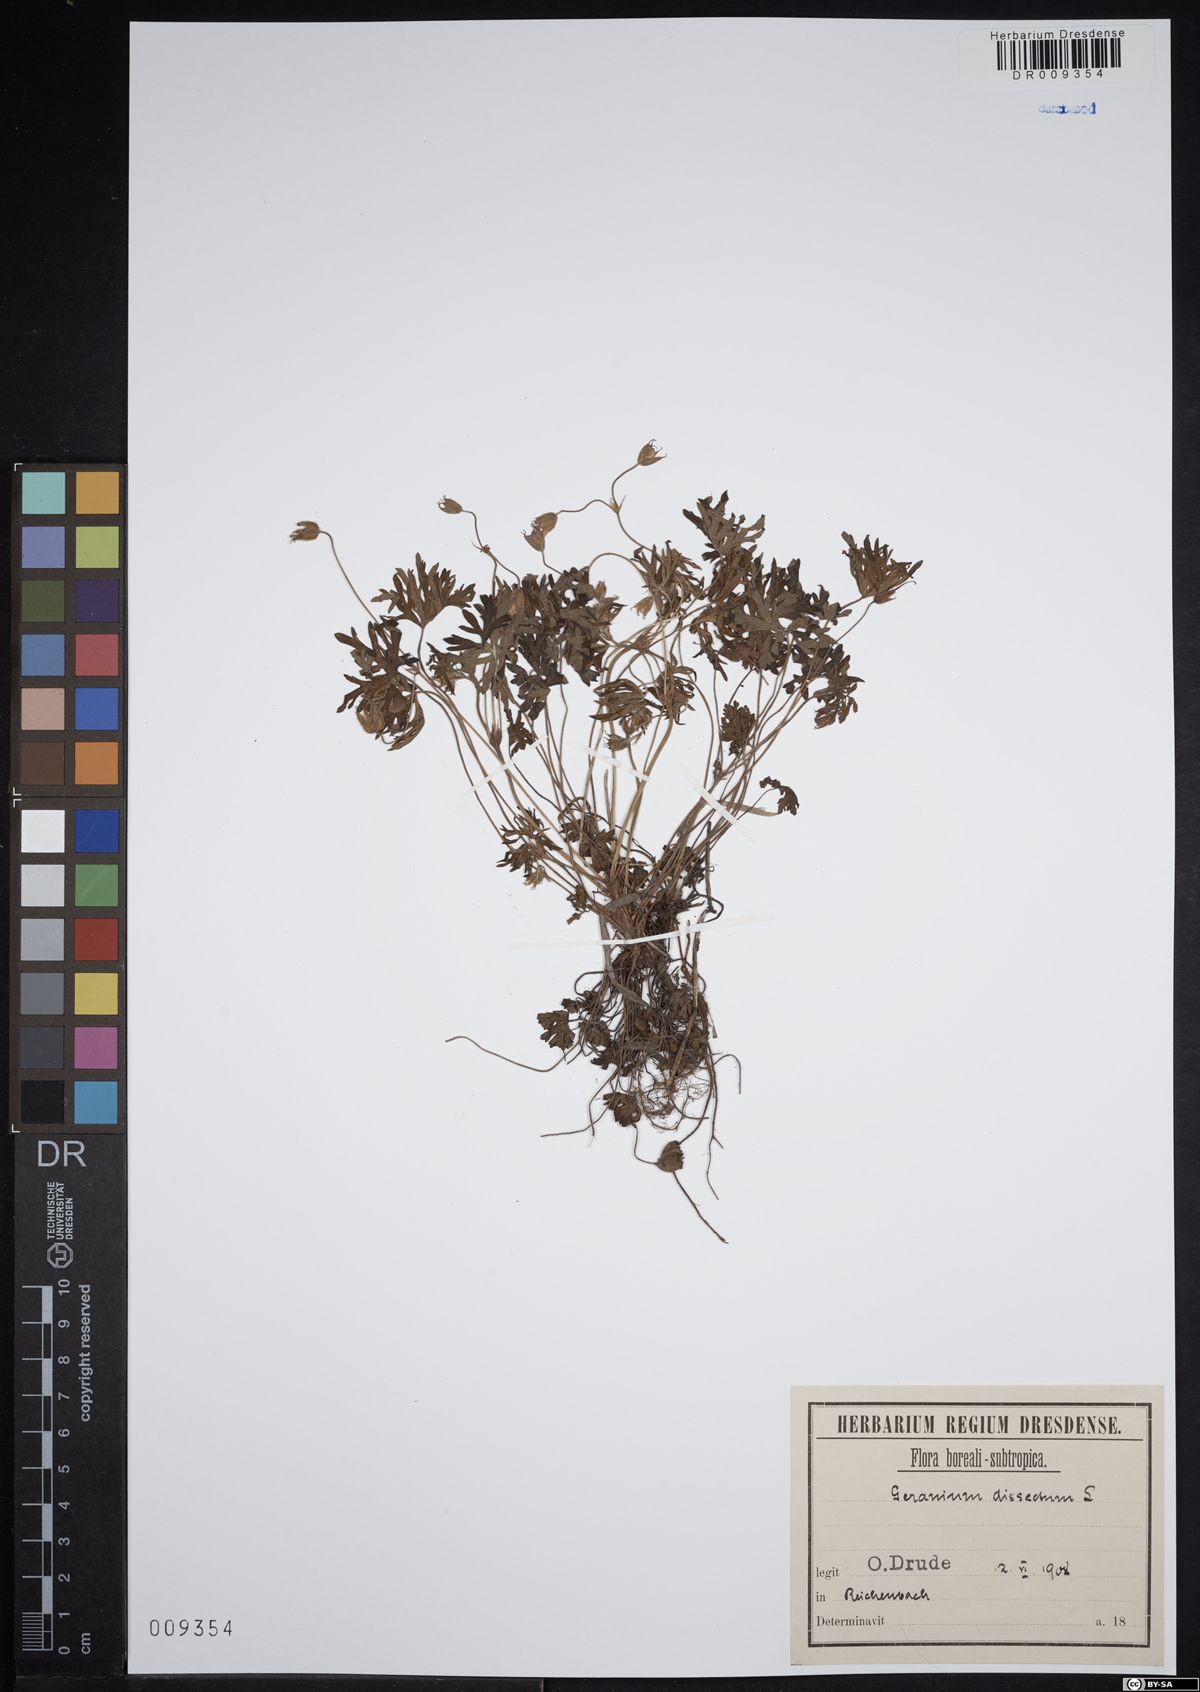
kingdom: Plantae
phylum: Tracheophyta
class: Magnoliopsida
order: Geraniales
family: Geraniaceae
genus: Geranium
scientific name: Geranium dissectum
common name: Cut-leaved crane's-bill
